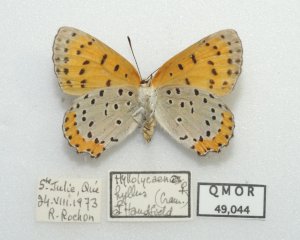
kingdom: Animalia
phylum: Arthropoda
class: Insecta
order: Lepidoptera
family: Sesiidae
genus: Sesia
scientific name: Sesia Lycaena hyllus
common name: Bronze Copper
